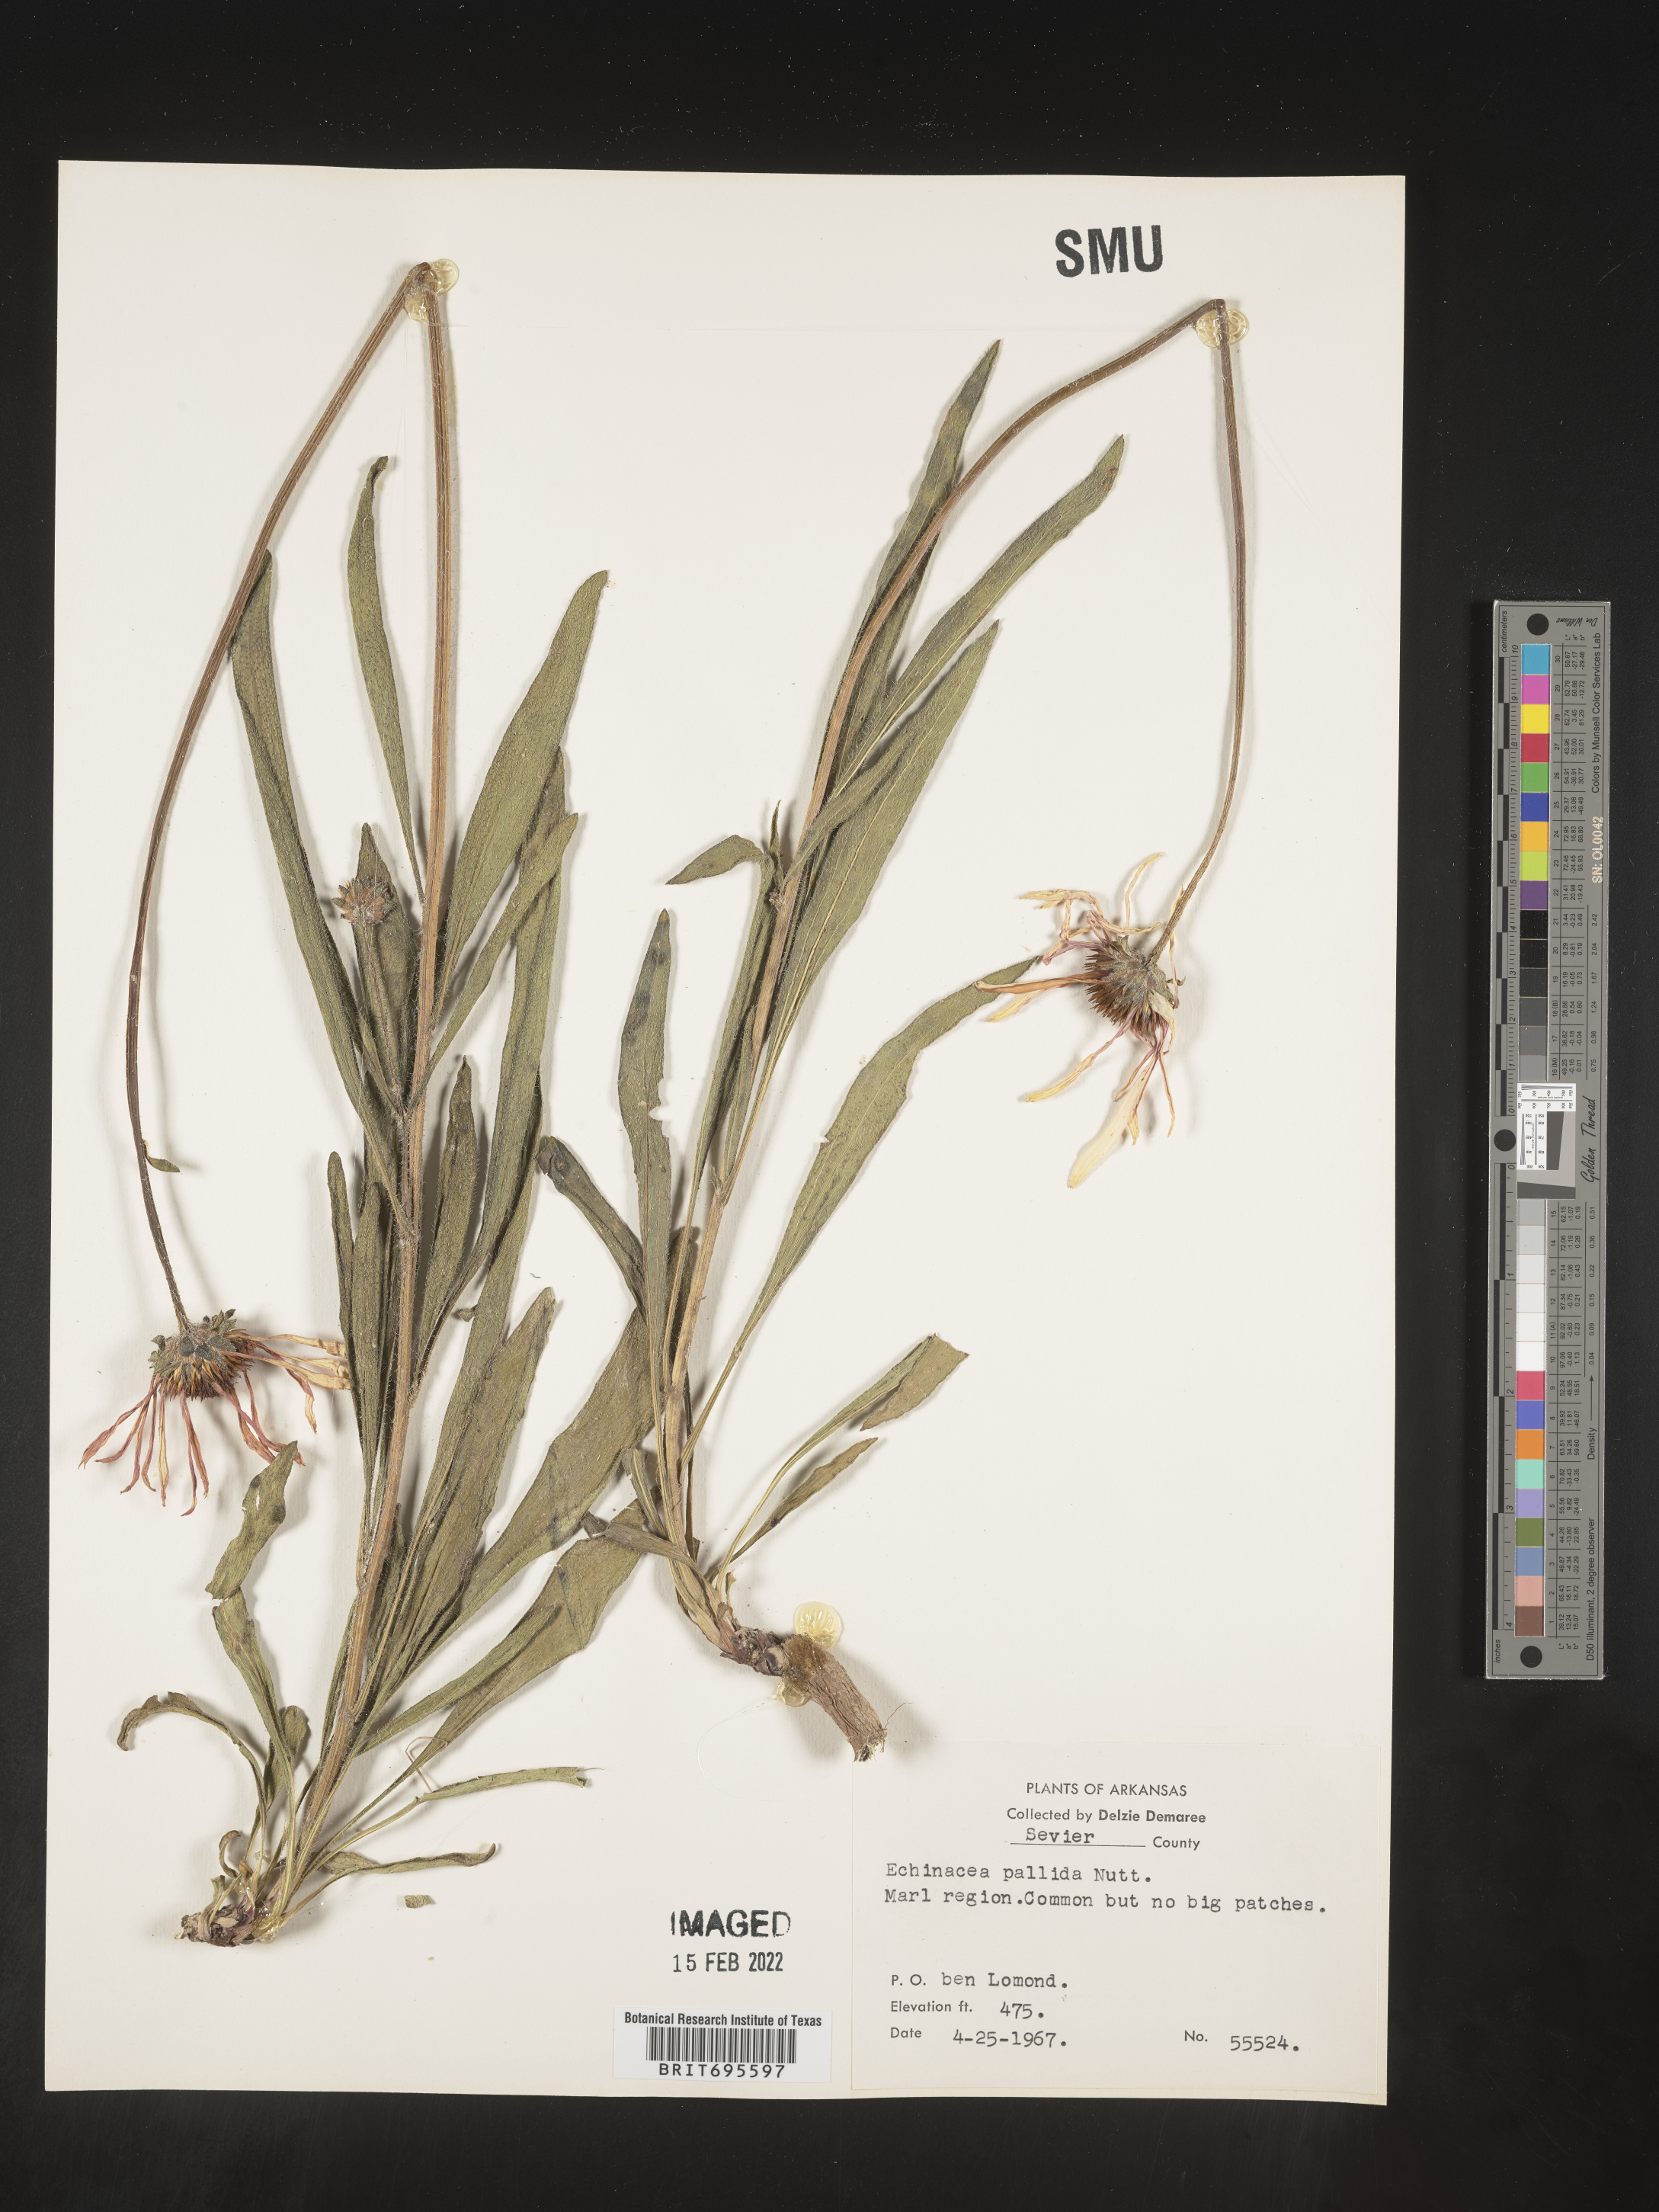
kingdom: Plantae
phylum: Tracheophyta
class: Magnoliopsida
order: Asterales
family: Asteraceae
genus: Echinacea
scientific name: Echinacea pallida
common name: Pale echinacea
